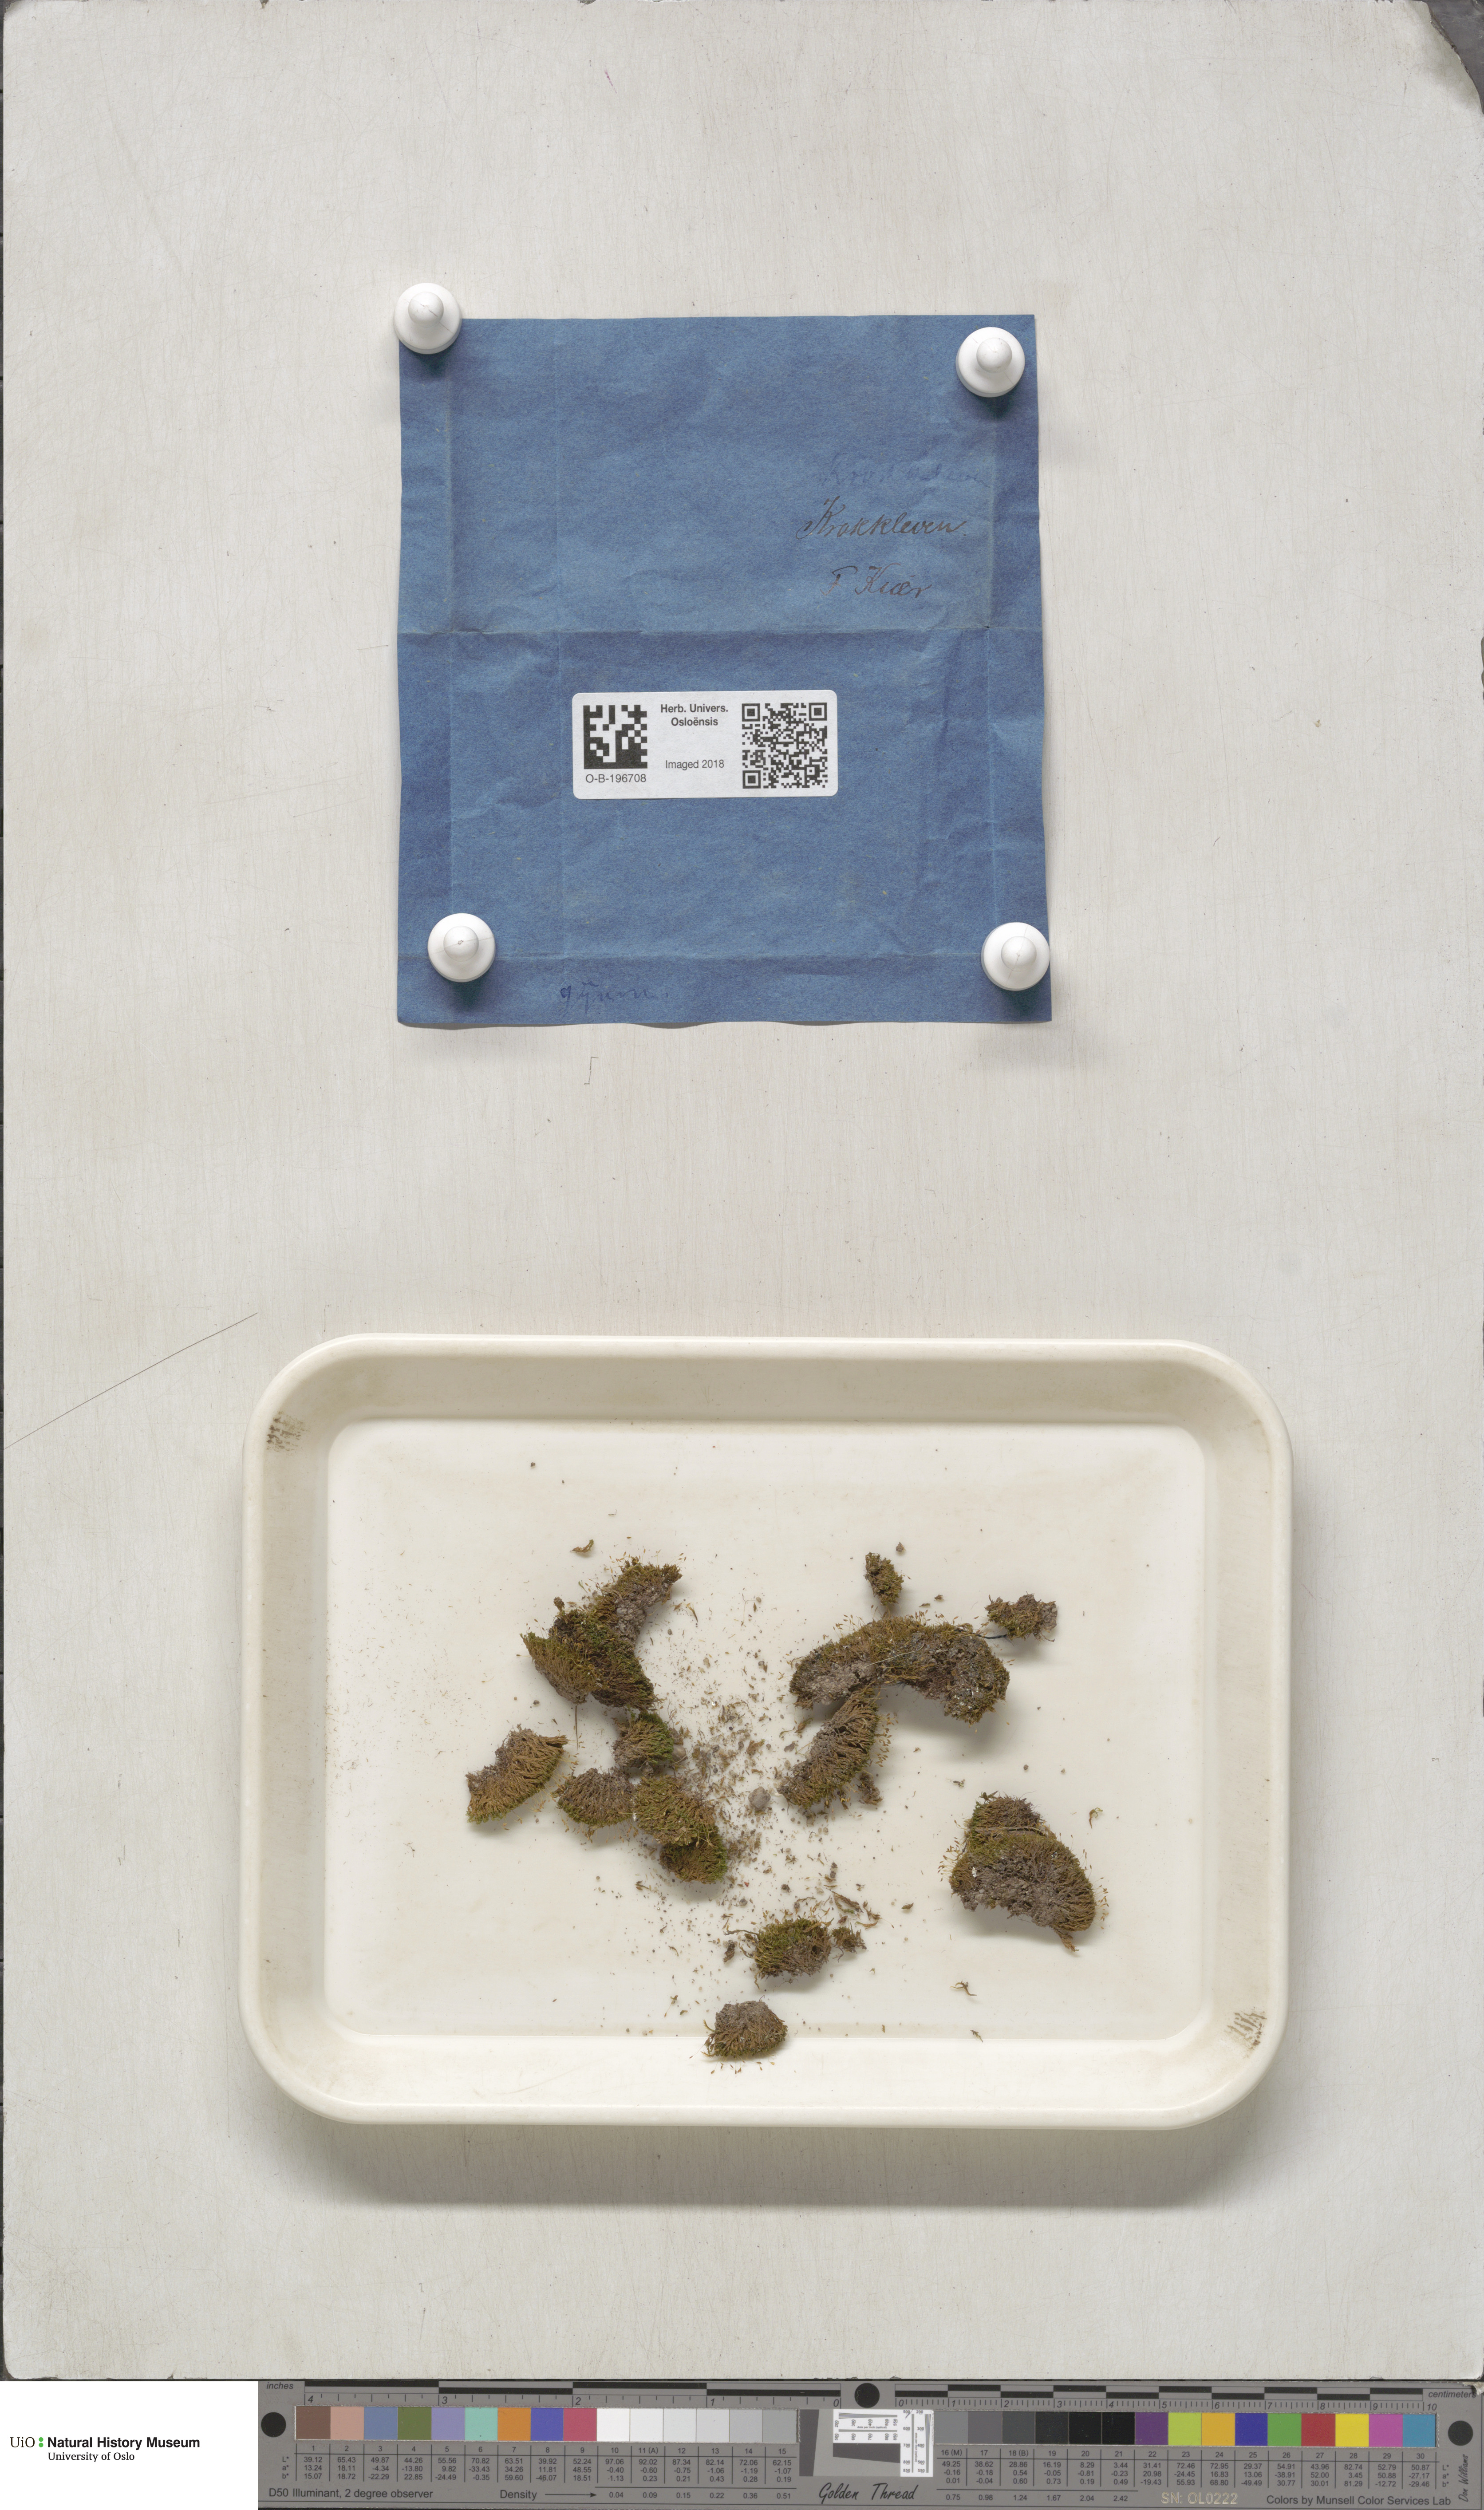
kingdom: Plantae
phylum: Bryophyta
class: Bryopsida
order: Pottiales
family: Pottiaceae
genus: Weissia
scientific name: Weissia
